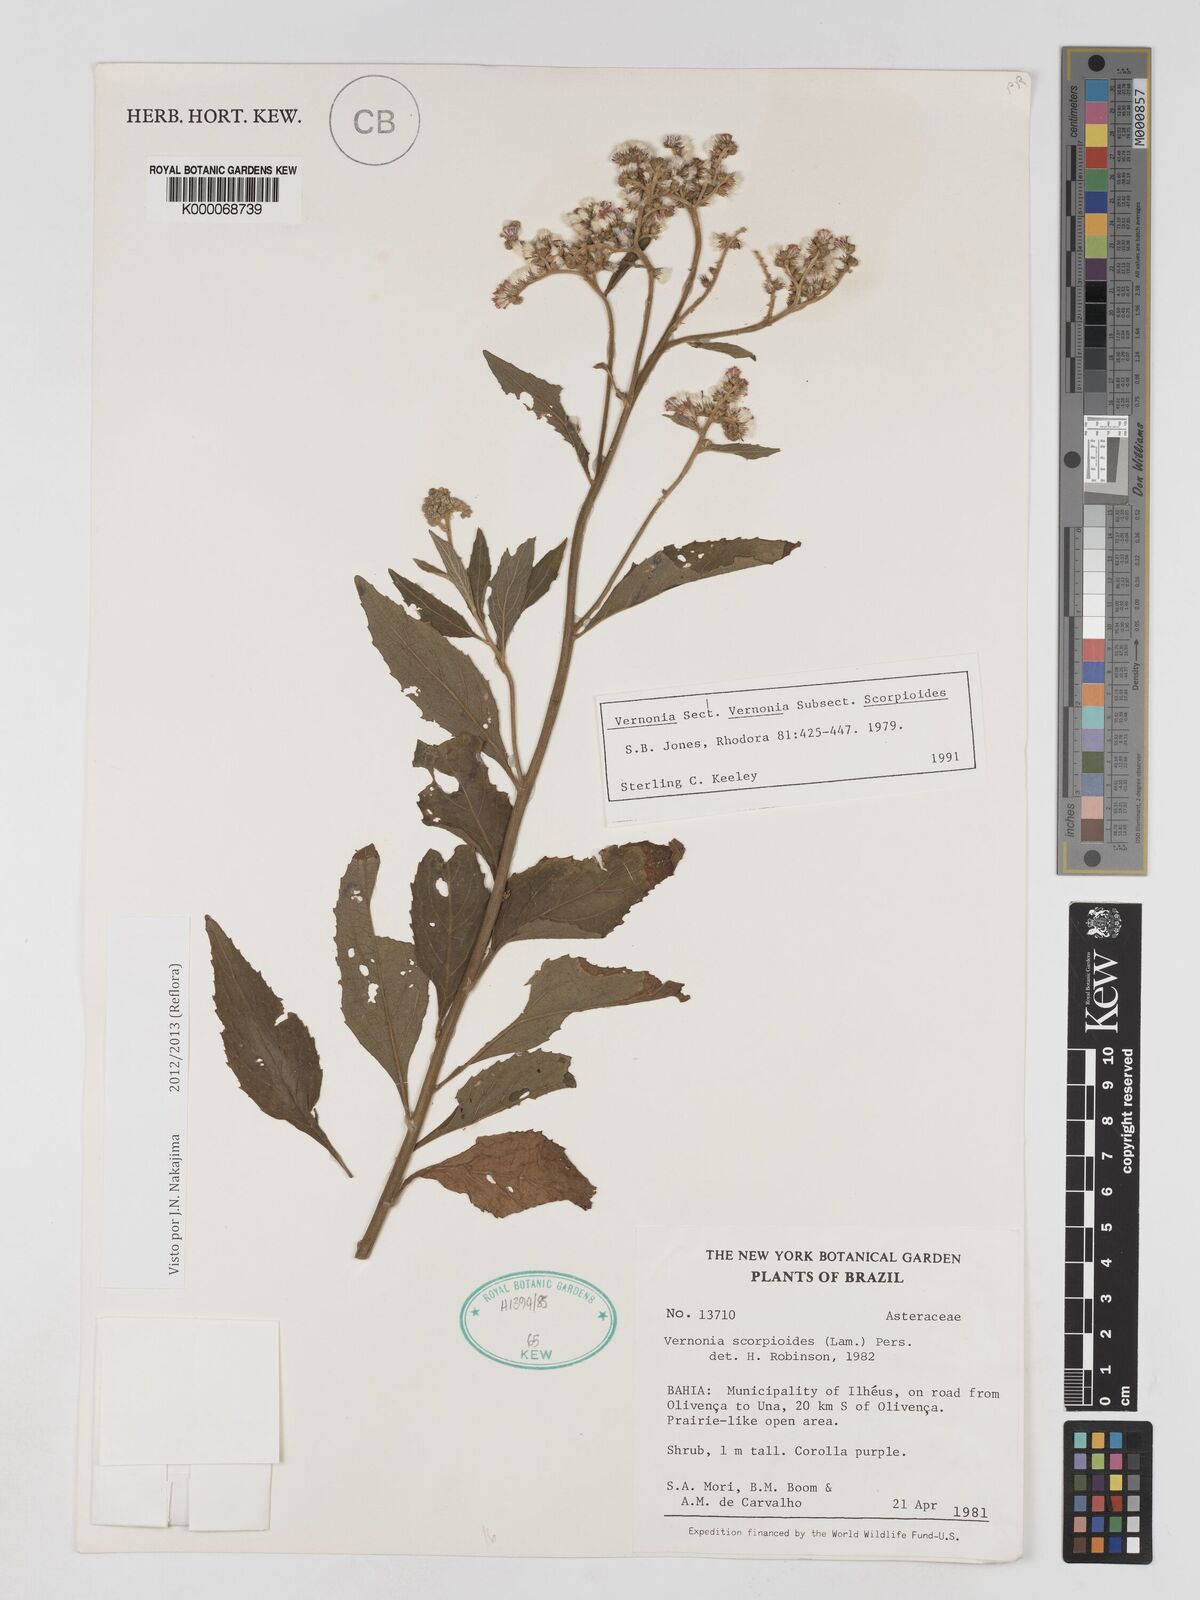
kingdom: Plantae
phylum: Tracheophyta
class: Magnoliopsida
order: Asterales
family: Asteraceae
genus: Cyrtocymura
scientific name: Cyrtocymura scorpioides
